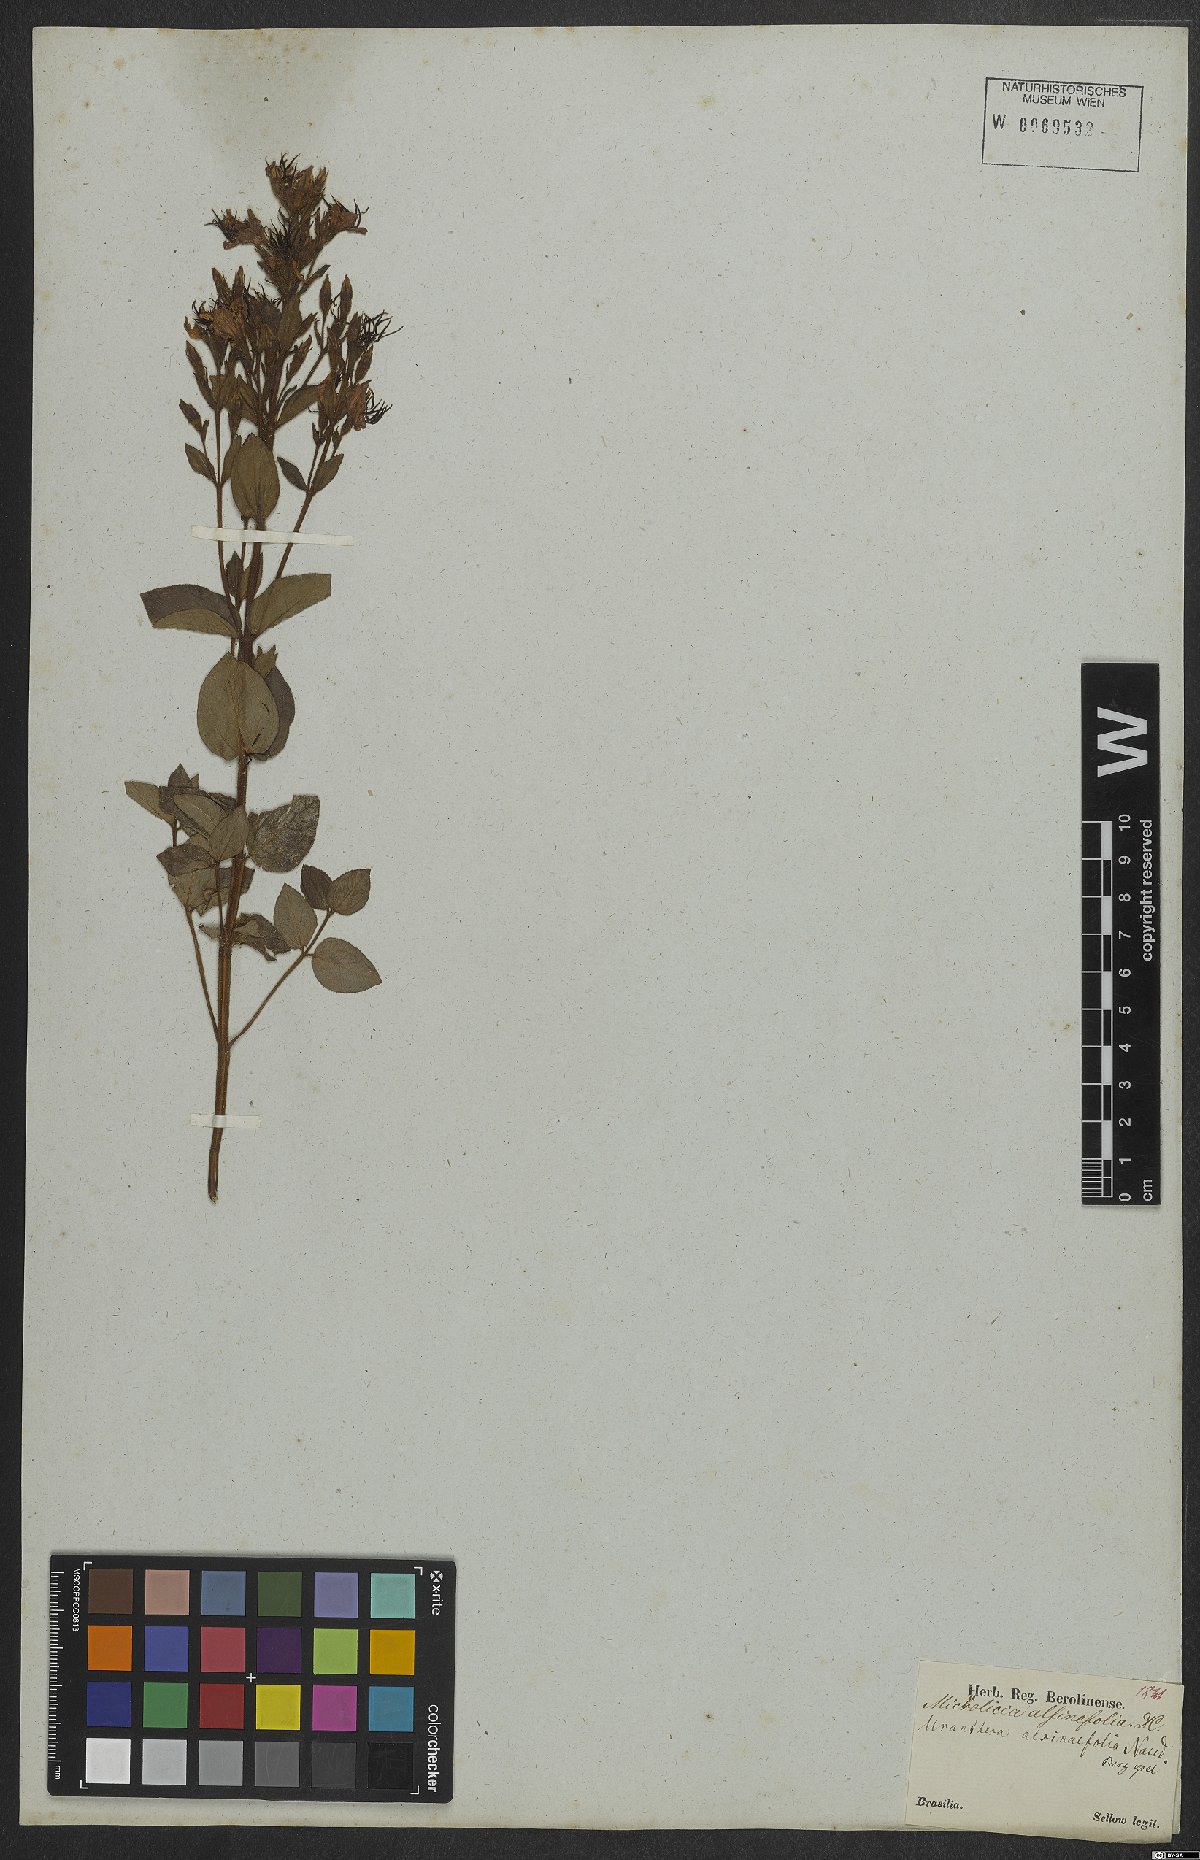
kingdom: Plantae
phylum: Tracheophyta
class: Magnoliopsida
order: Myrtales
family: Melastomataceae
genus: Acisanthera
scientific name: Acisanthera alsinefolia
